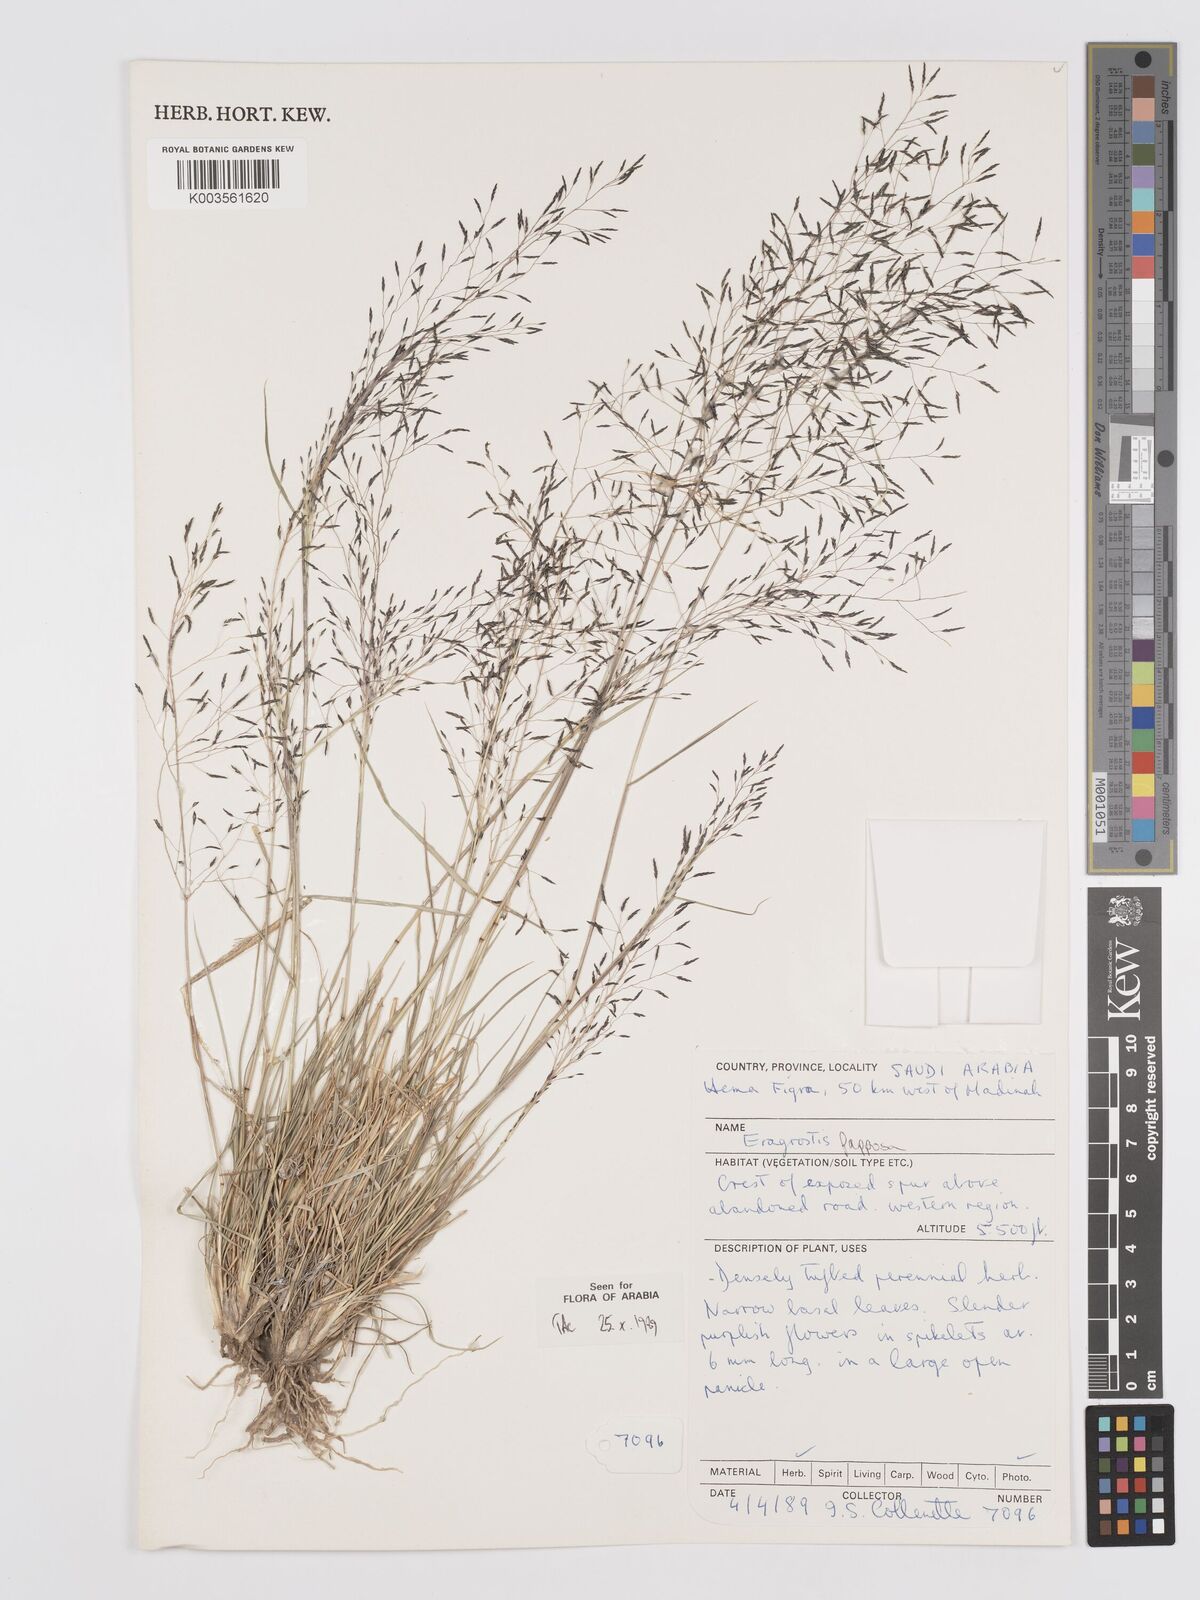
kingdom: Plantae
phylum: Tracheophyta
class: Liliopsida
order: Poales
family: Poaceae
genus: Eragrostis
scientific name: Eragrostis papposa
